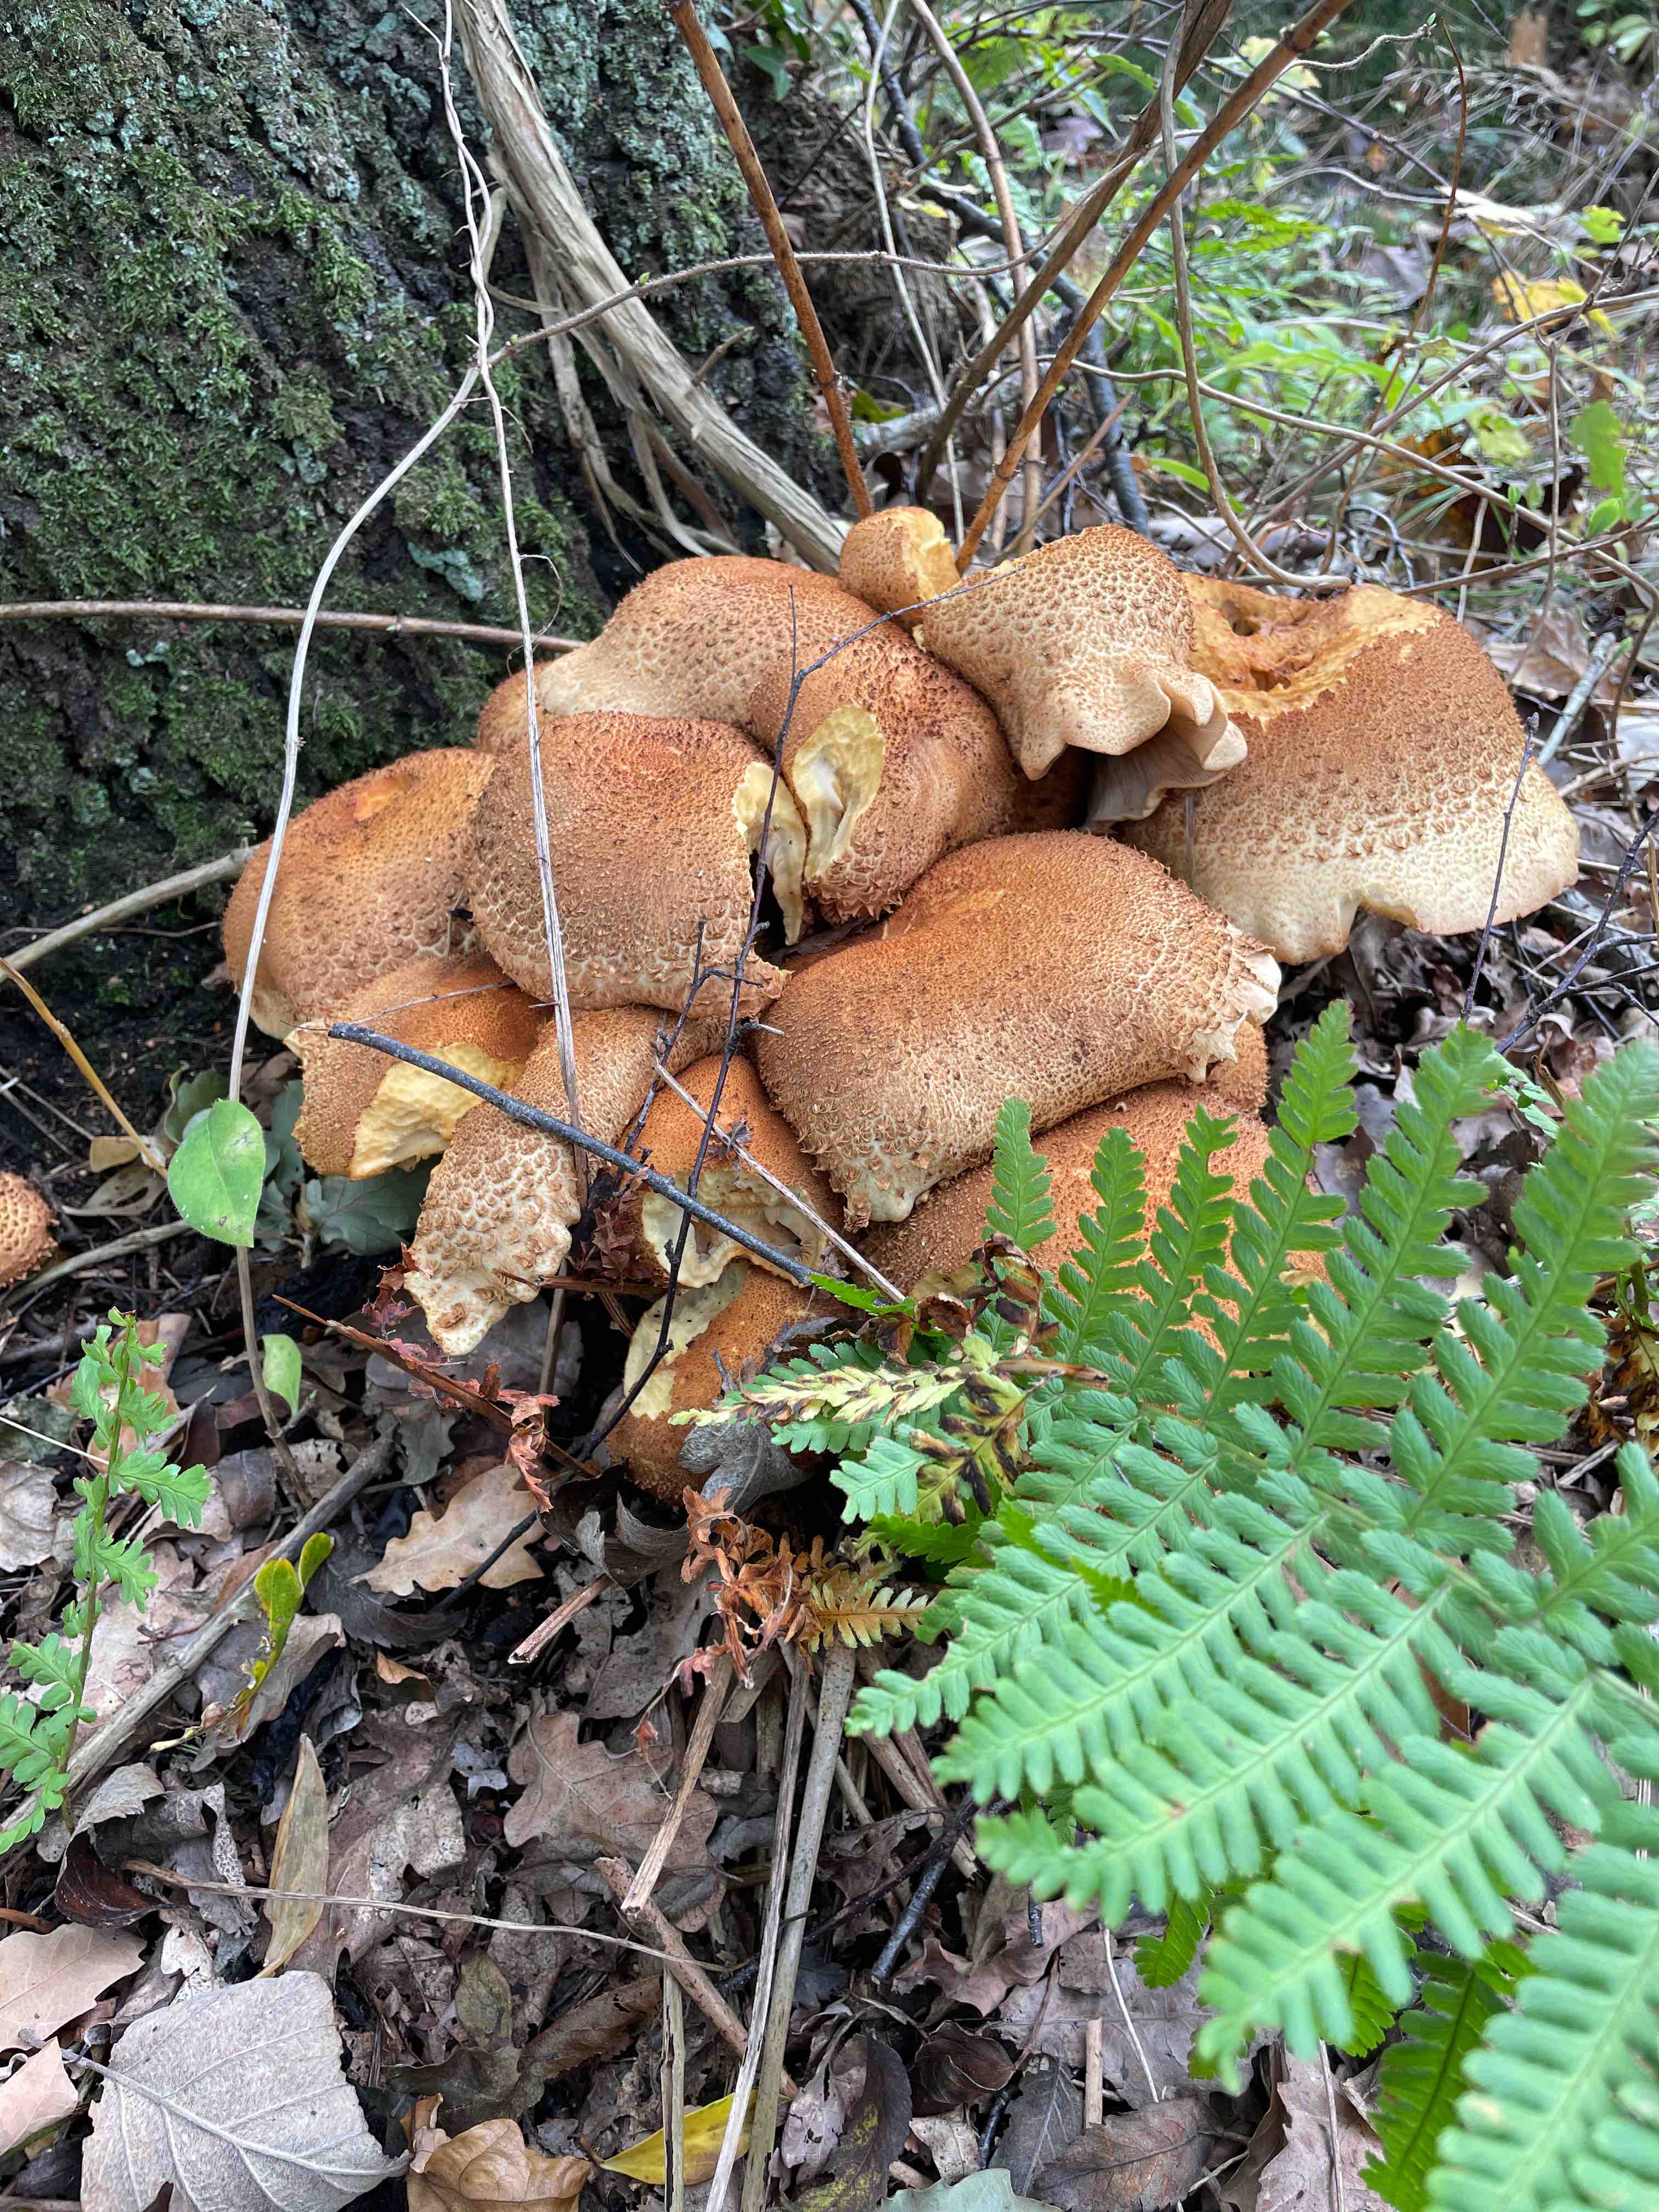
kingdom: Fungi
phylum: Basidiomycota
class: Agaricomycetes
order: Agaricales
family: Strophariaceae
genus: Pholiota
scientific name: Pholiota squarrosa
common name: krumskællet skælhat
